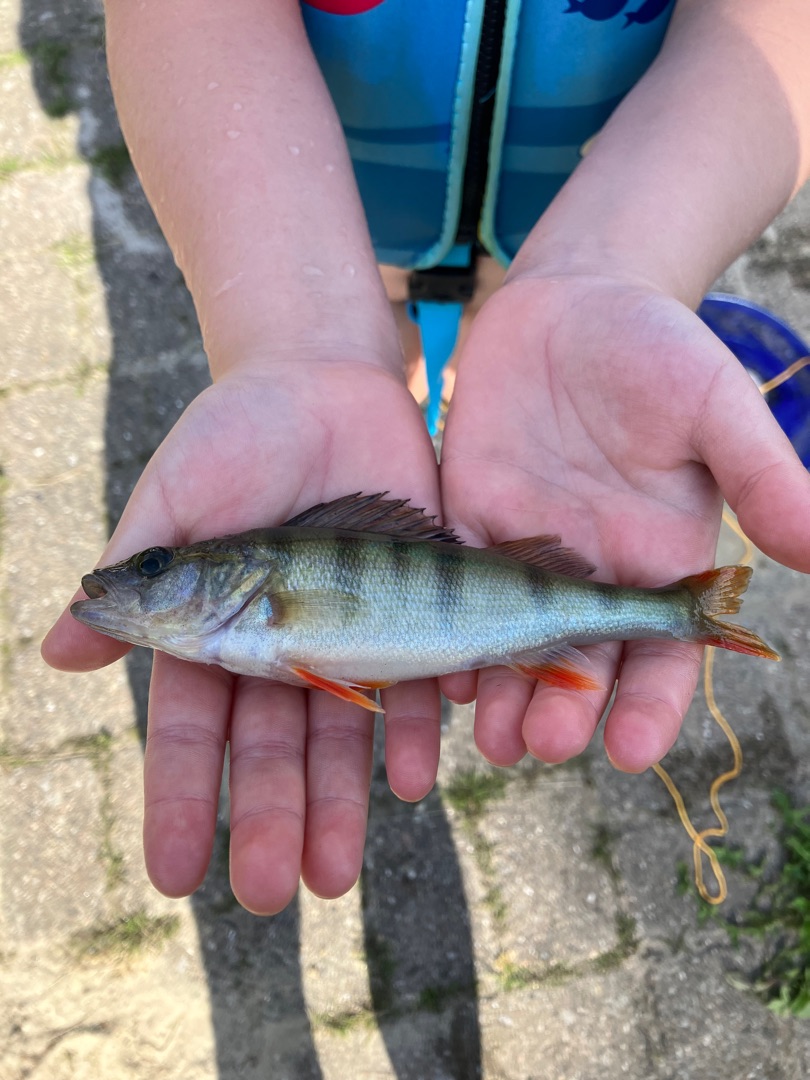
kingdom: Animalia
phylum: Chordata
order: Perciformes
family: Percidae
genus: Perca
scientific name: Perca fluviatilis
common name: Aborre
